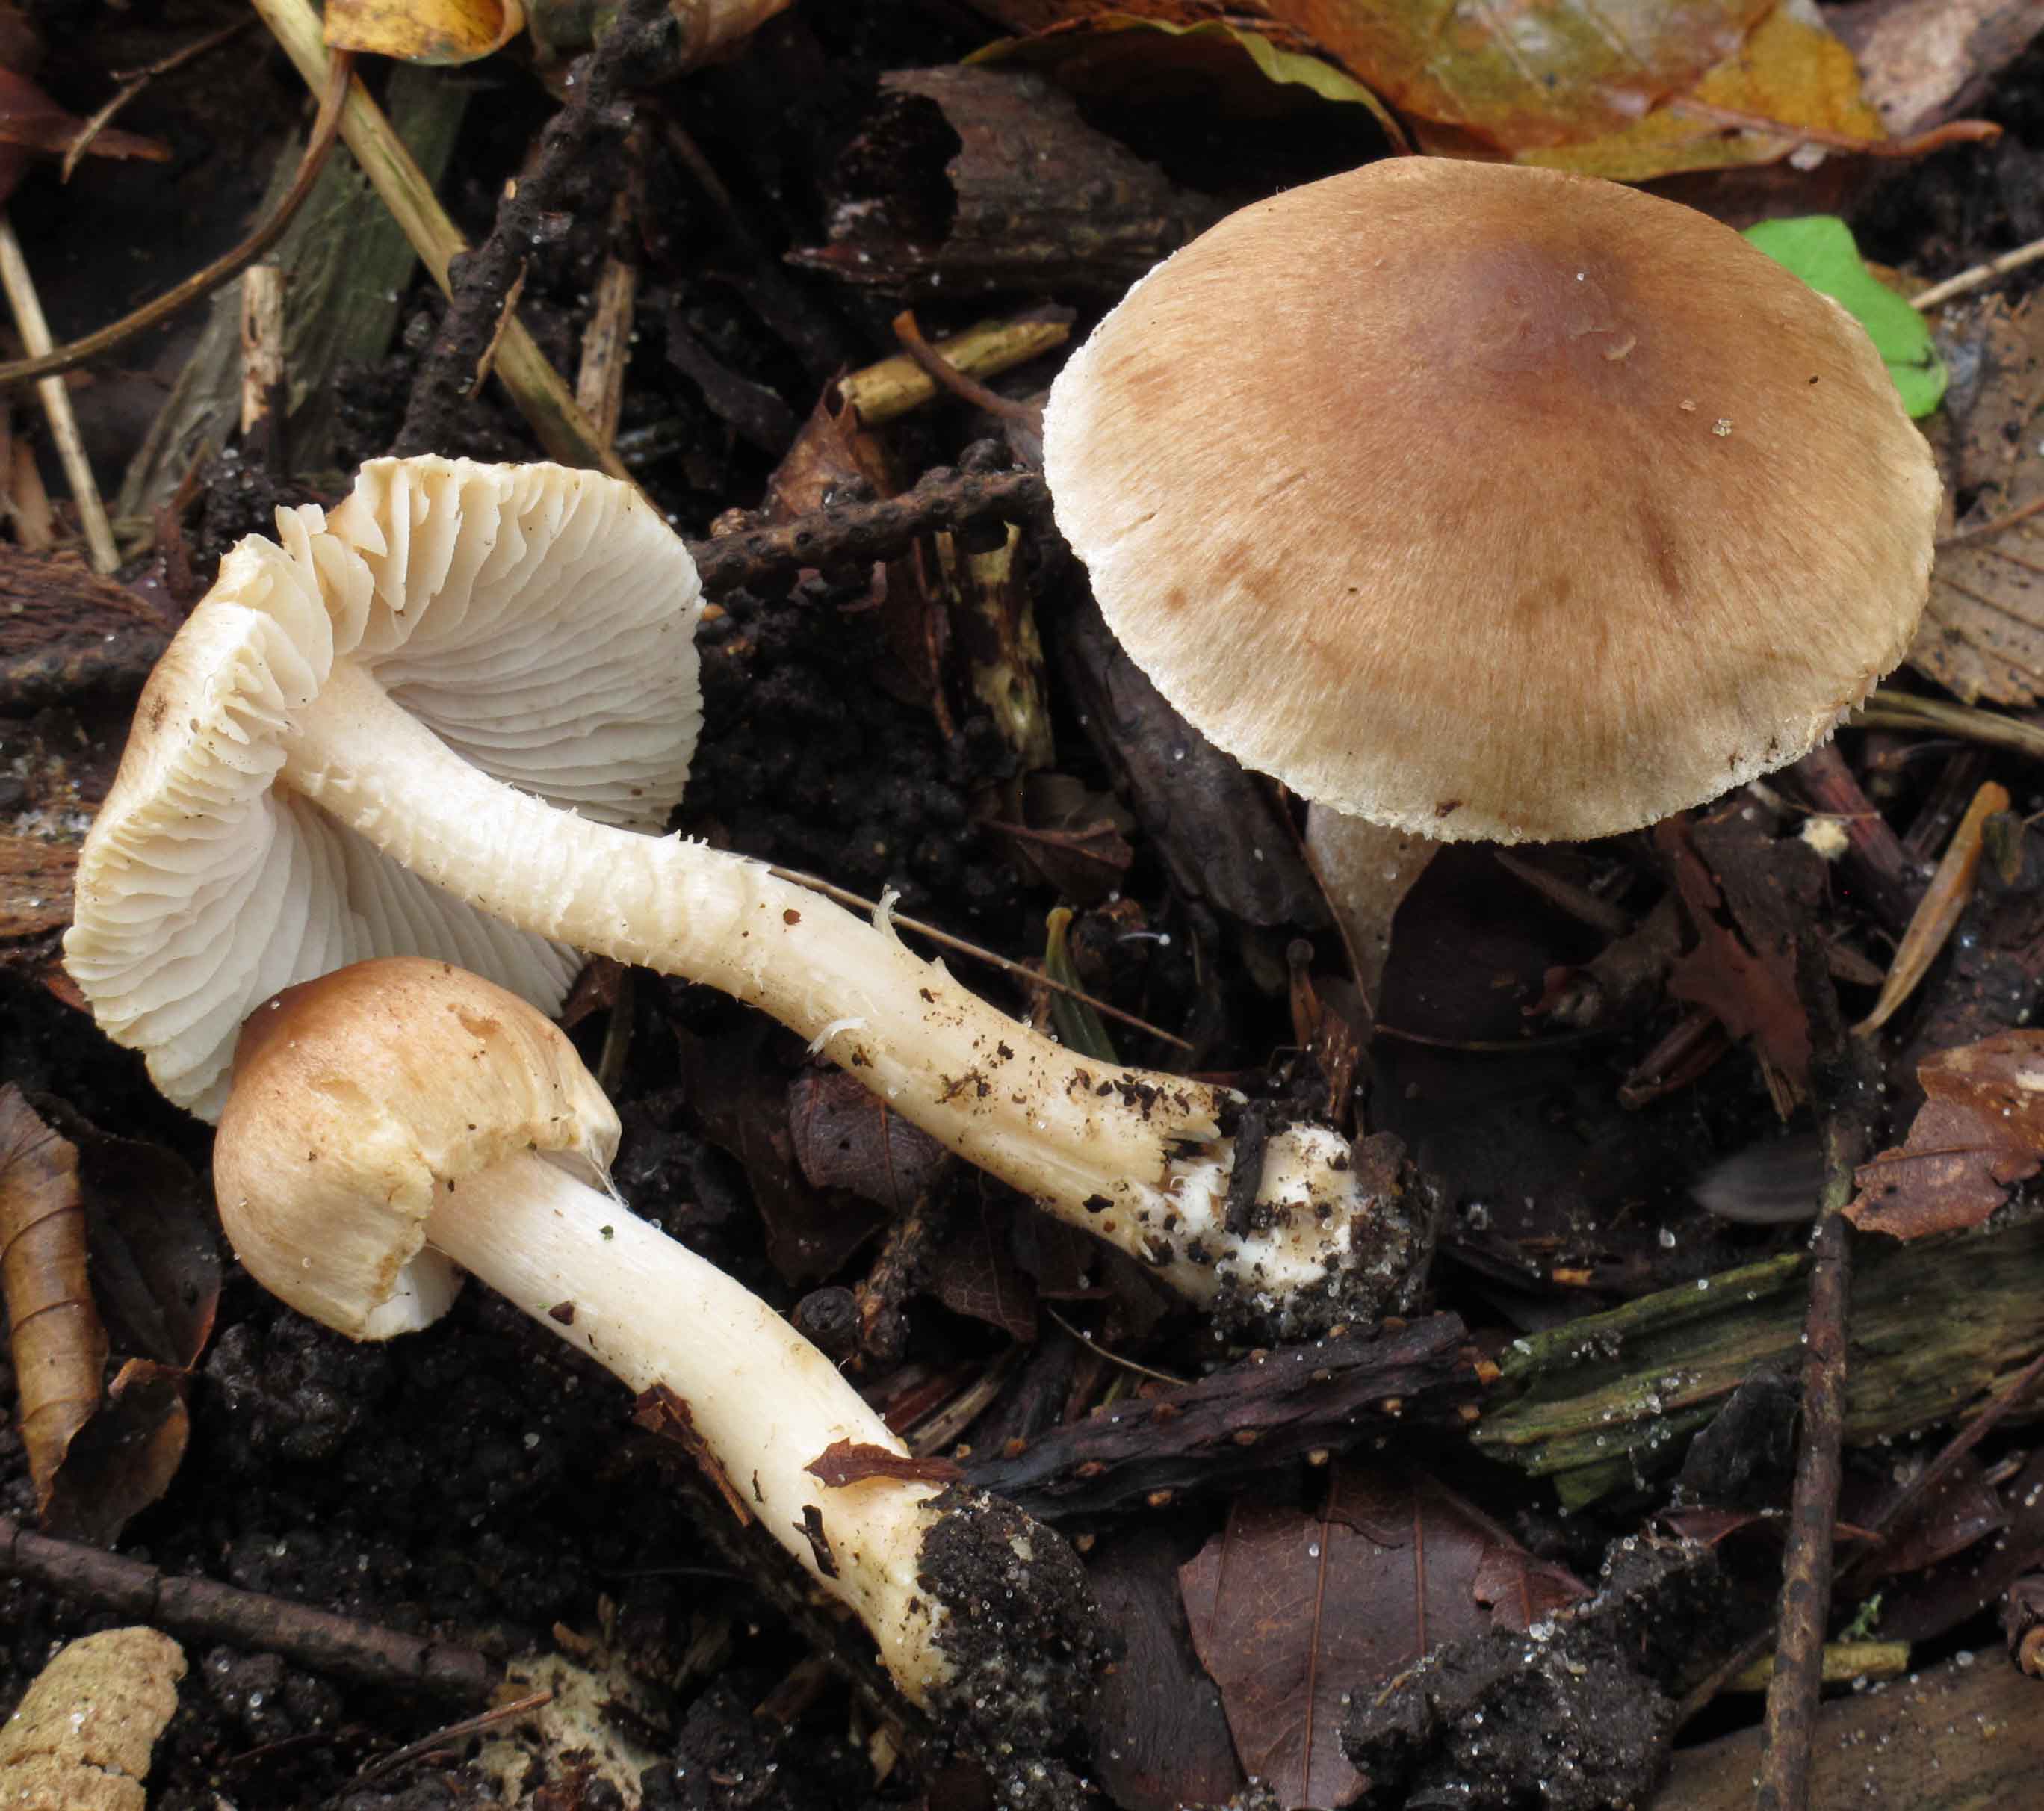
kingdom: Fungi
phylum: Basidiomycota
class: Agaricomycetes
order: Agaricales
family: Inocybaceae
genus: Inocybe
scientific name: Inocybe
